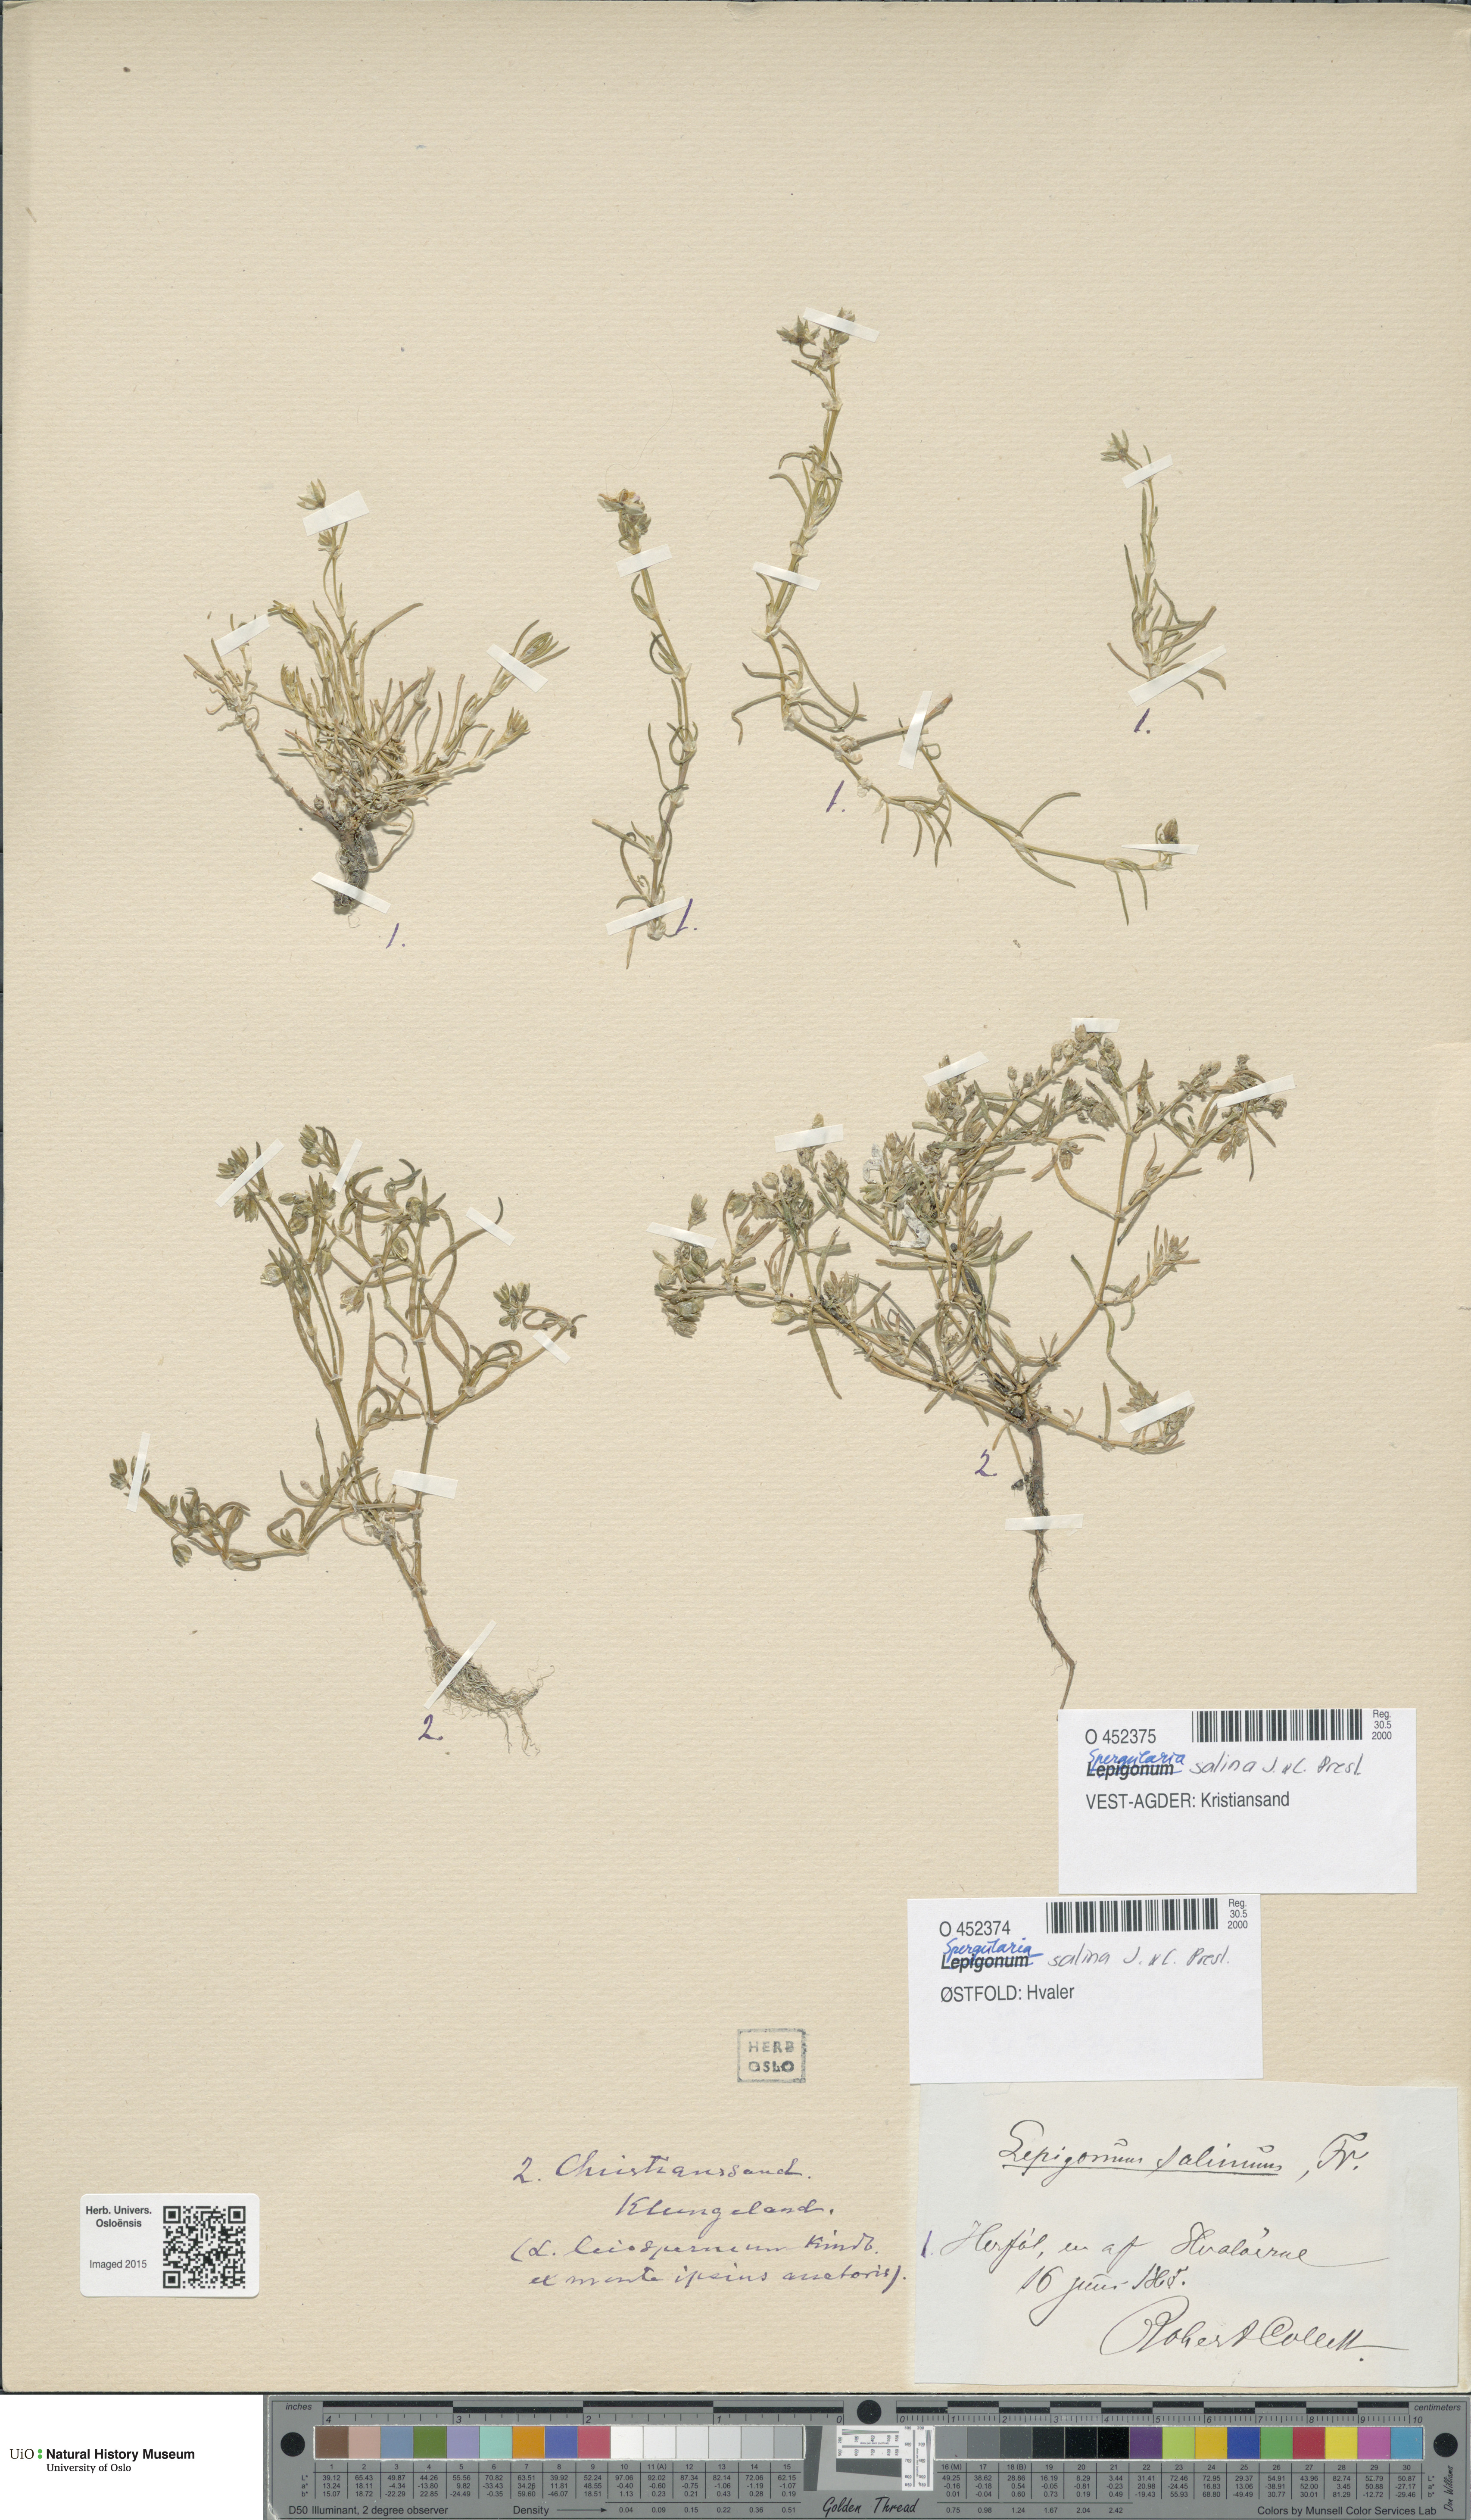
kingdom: Plantae
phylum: Tracheophyta
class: Magnoliopsida
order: Caryophyllales
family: Caryophyllaceae
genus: Spergularia
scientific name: Spergularia marina
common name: Lesser sea-spurrey
